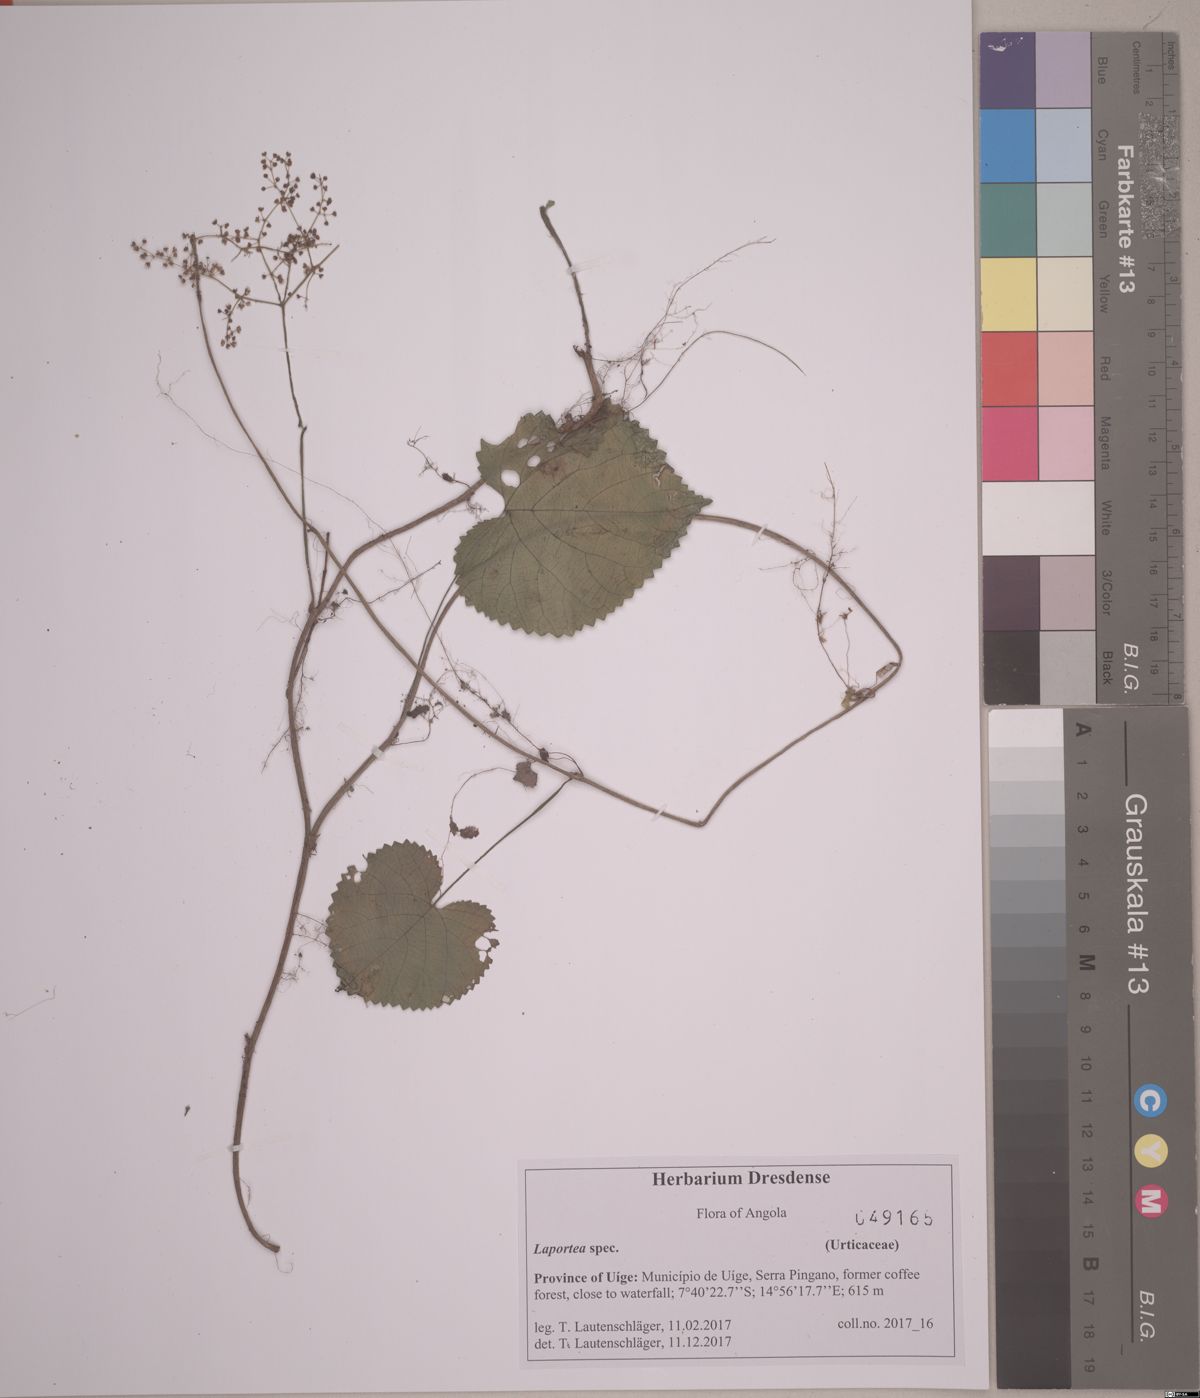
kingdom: Plantae
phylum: Tracheophyta
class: Magnoliopsida
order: Rosales
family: Urticaceae
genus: Scepocarpus
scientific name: Scepocarpus repens
